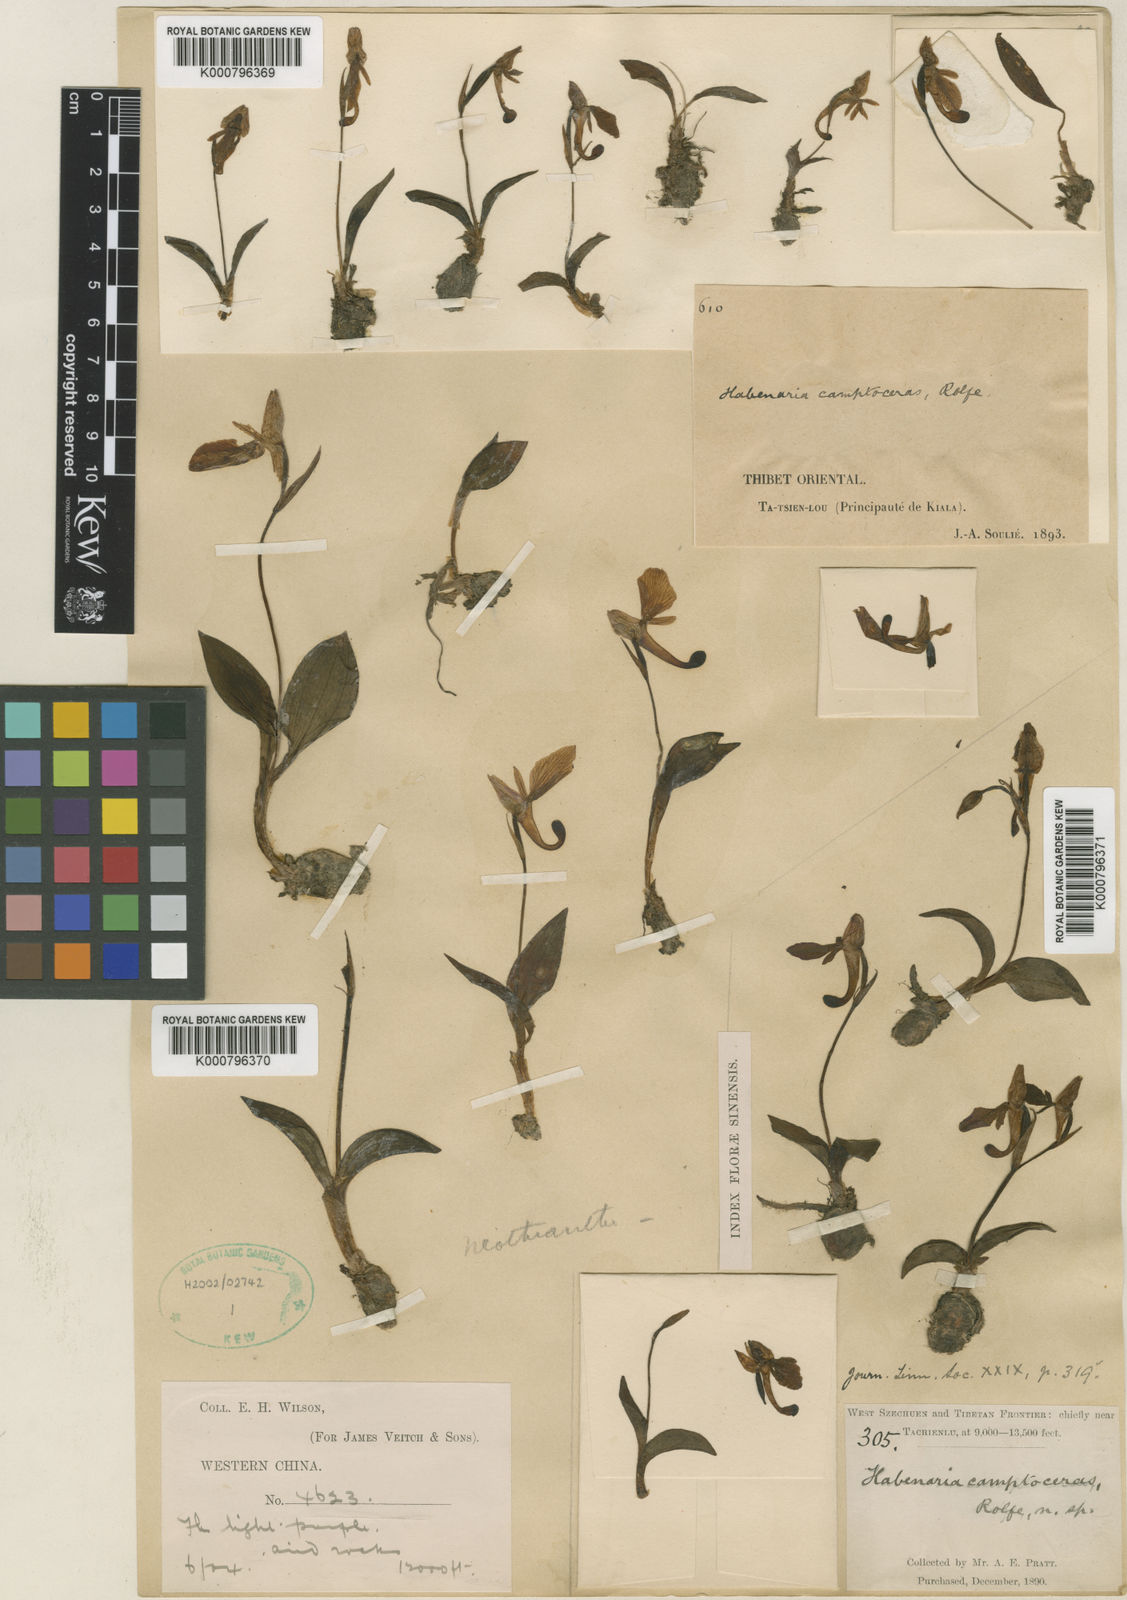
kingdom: Plantae
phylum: Tracheophyta
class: Liliopsida
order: Asparagales
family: Orchidaceae
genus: Hemipilia
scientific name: Hemipilia camptoceras
